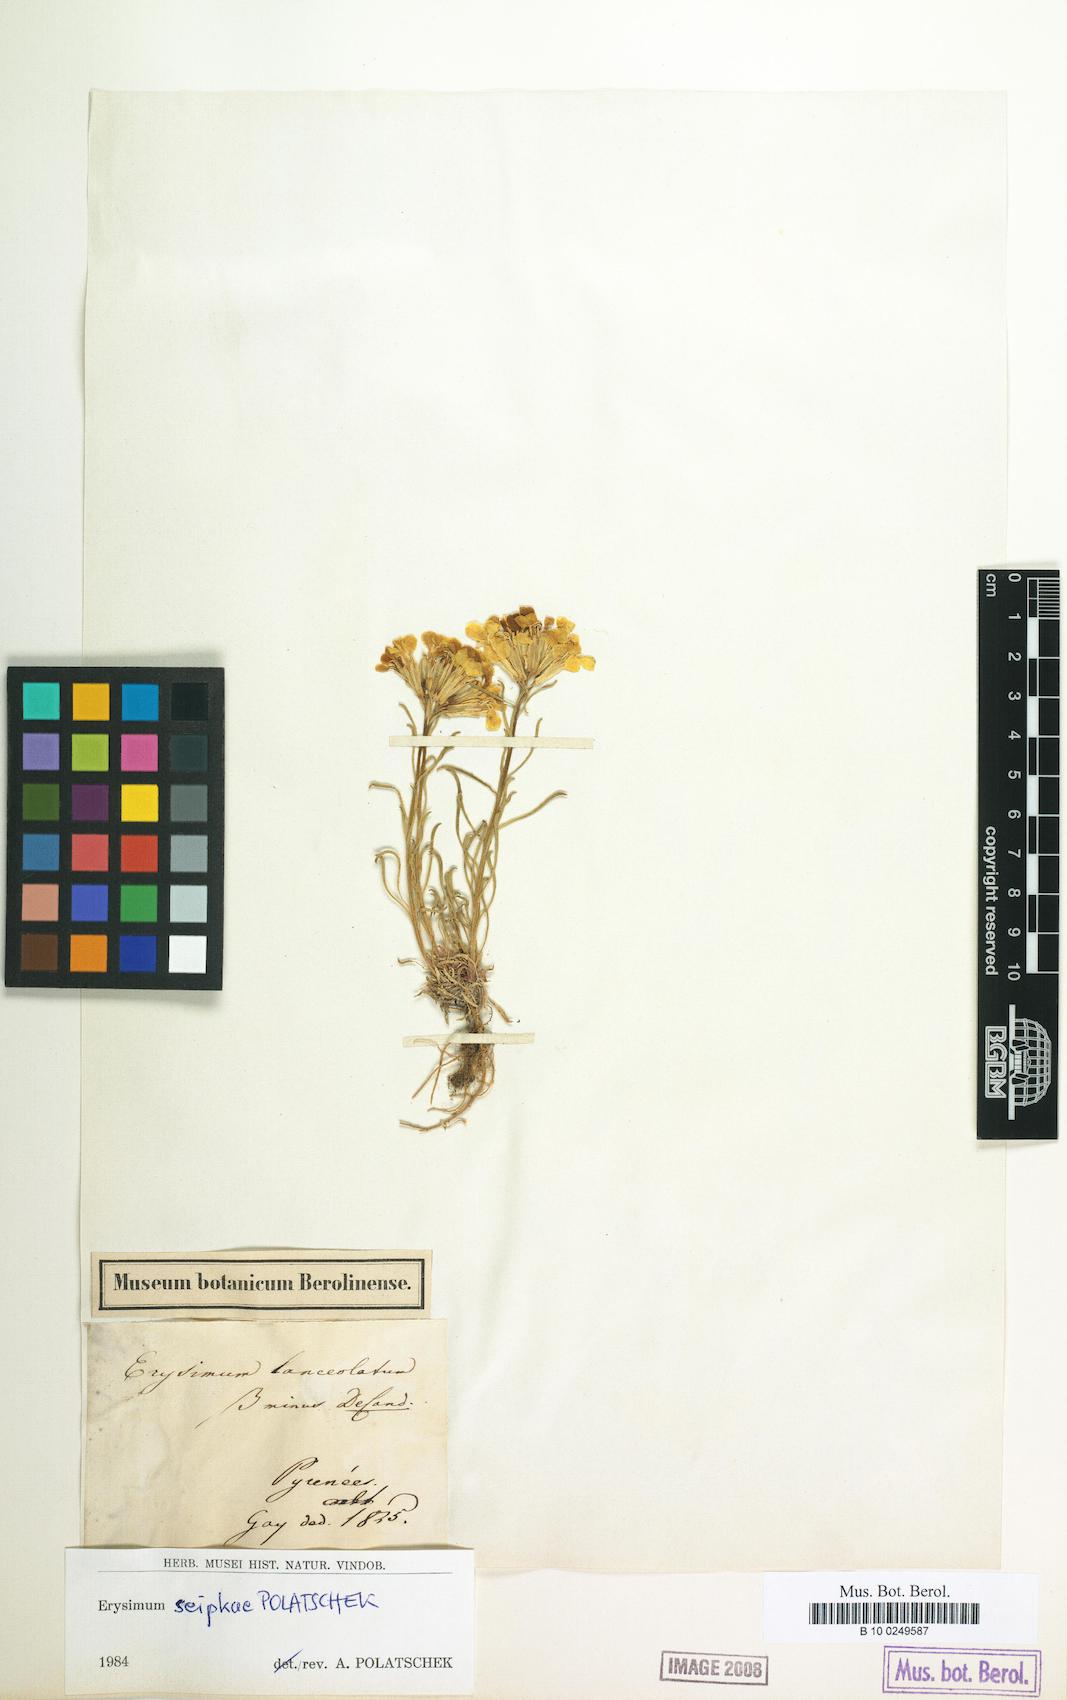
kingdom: Plantae
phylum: Tracheophyta
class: Magnoliopsida
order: Brassicales
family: Brassicaceae
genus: Erysimum
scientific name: Erysimum seipkae
